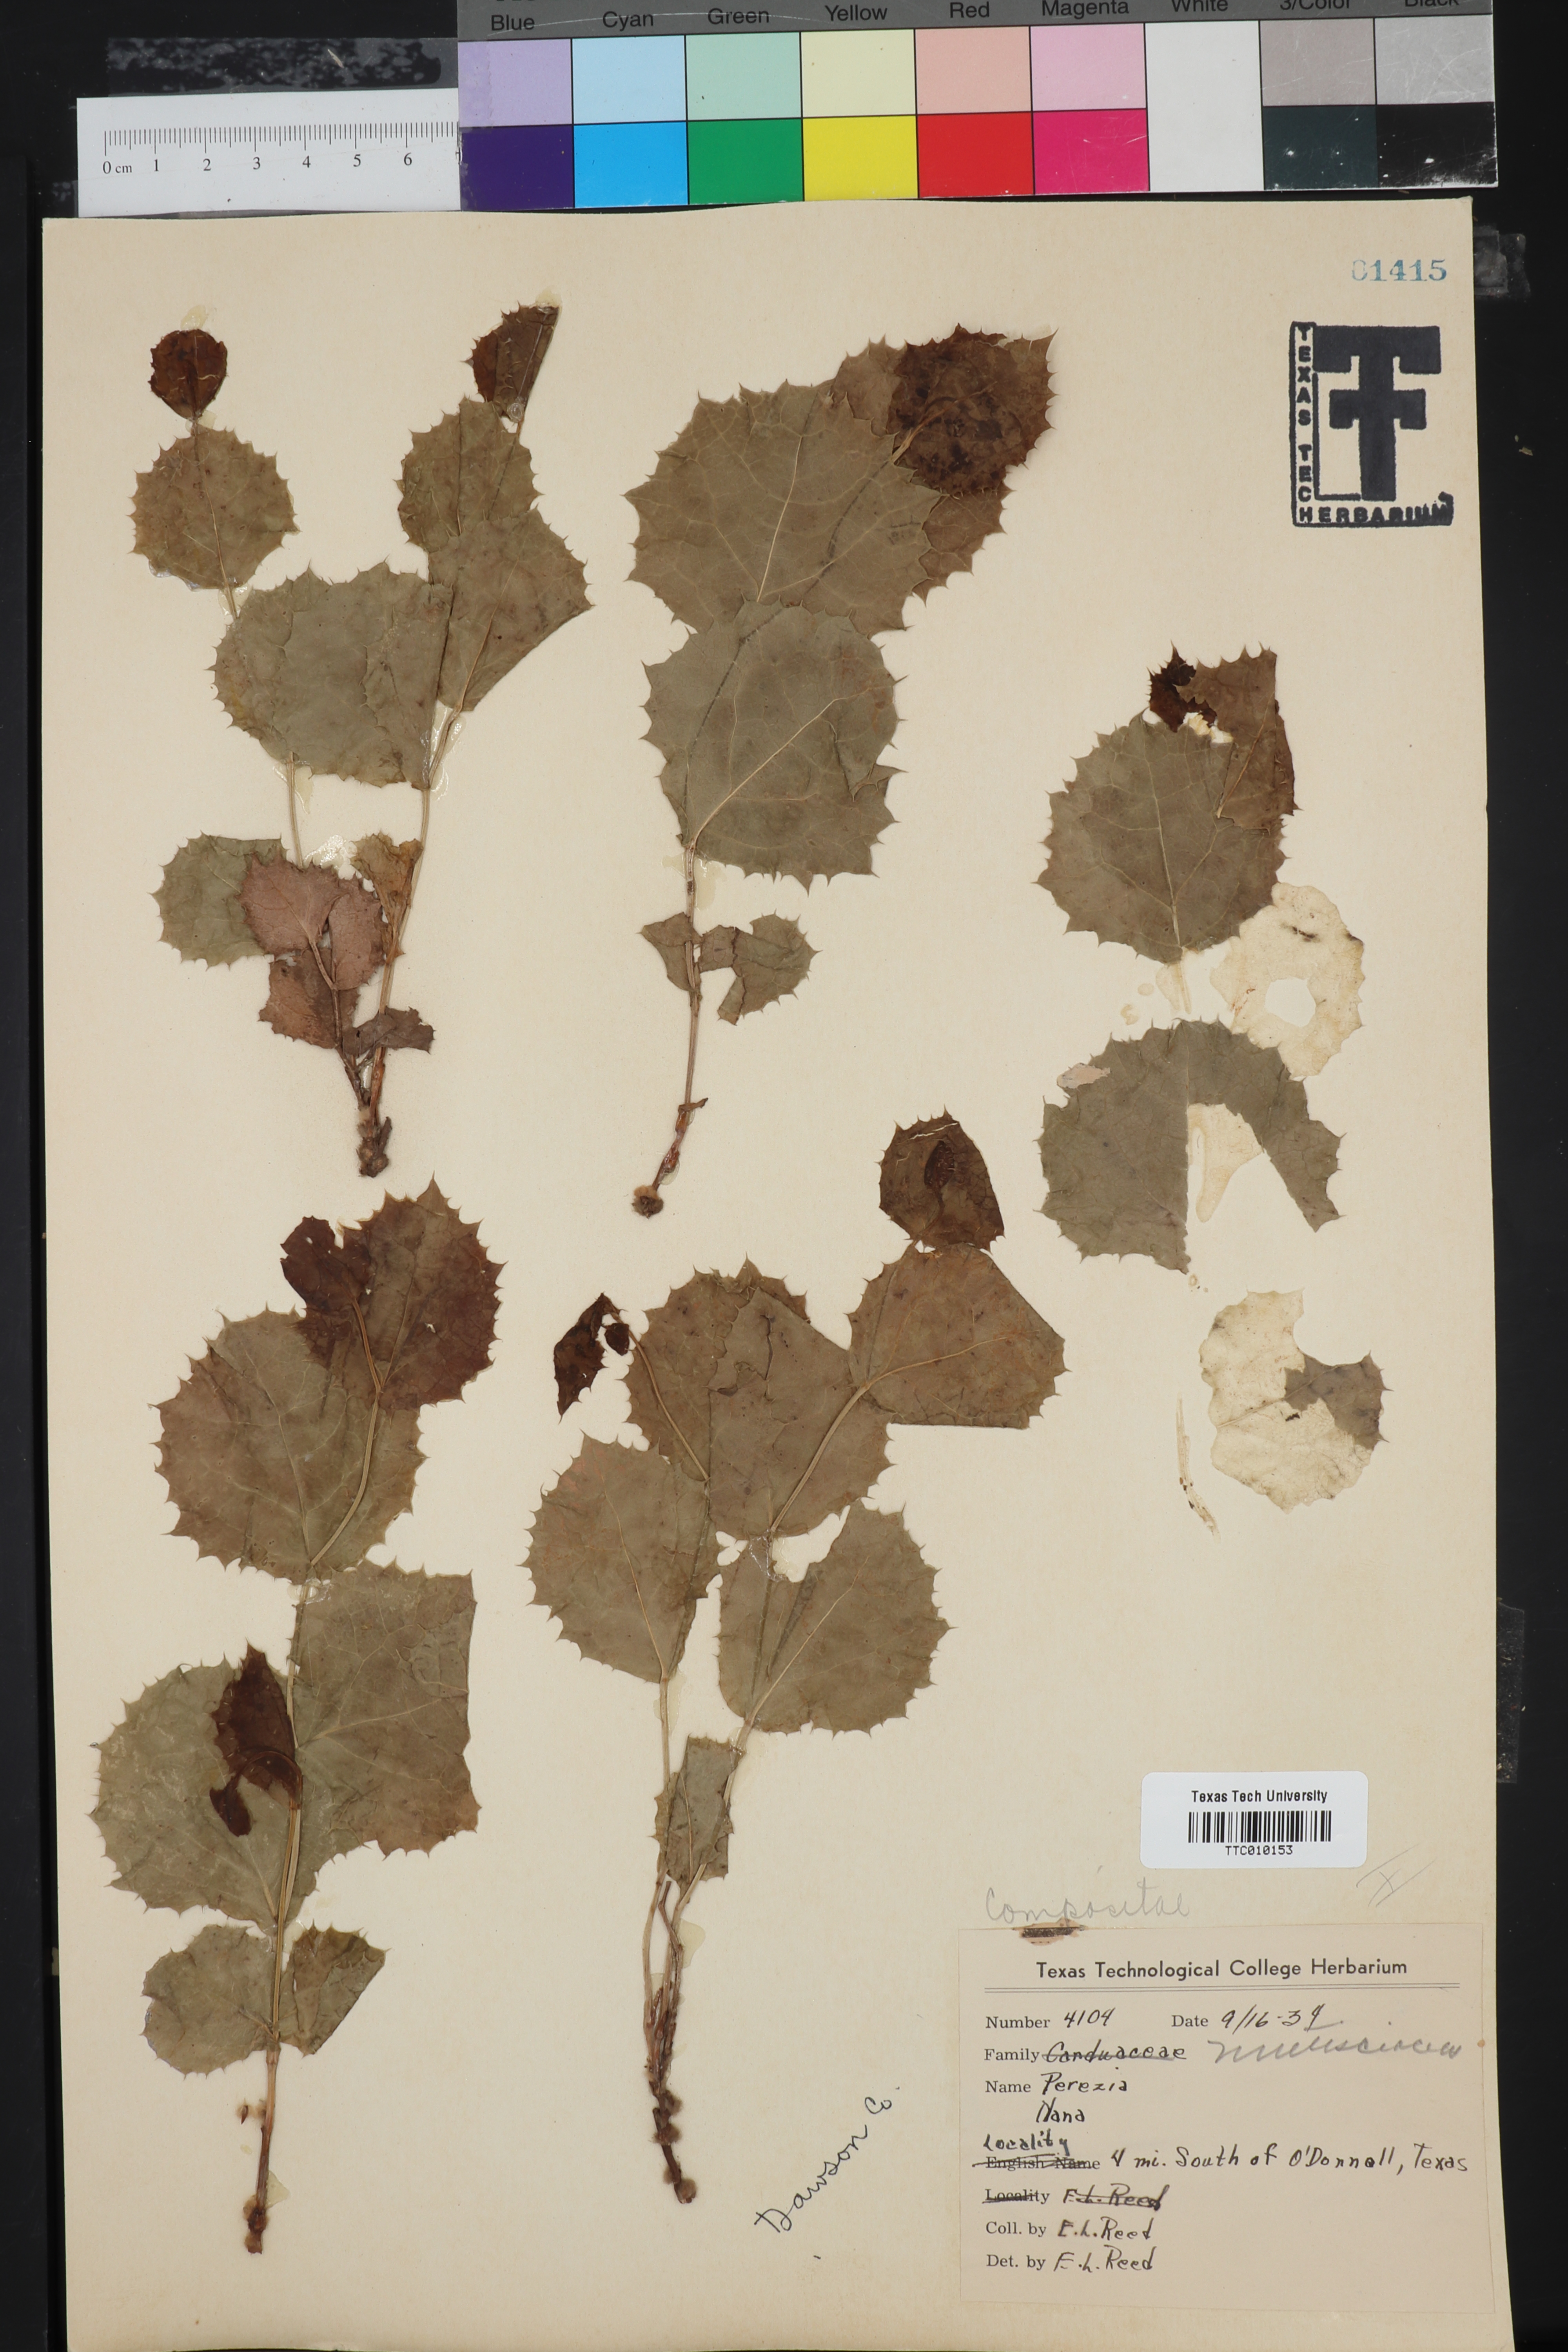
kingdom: Plantae
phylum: Tracheophyta
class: Magnoliopsida
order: Asterales
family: Asteraceae
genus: Acourtia
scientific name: Acourtia nana
